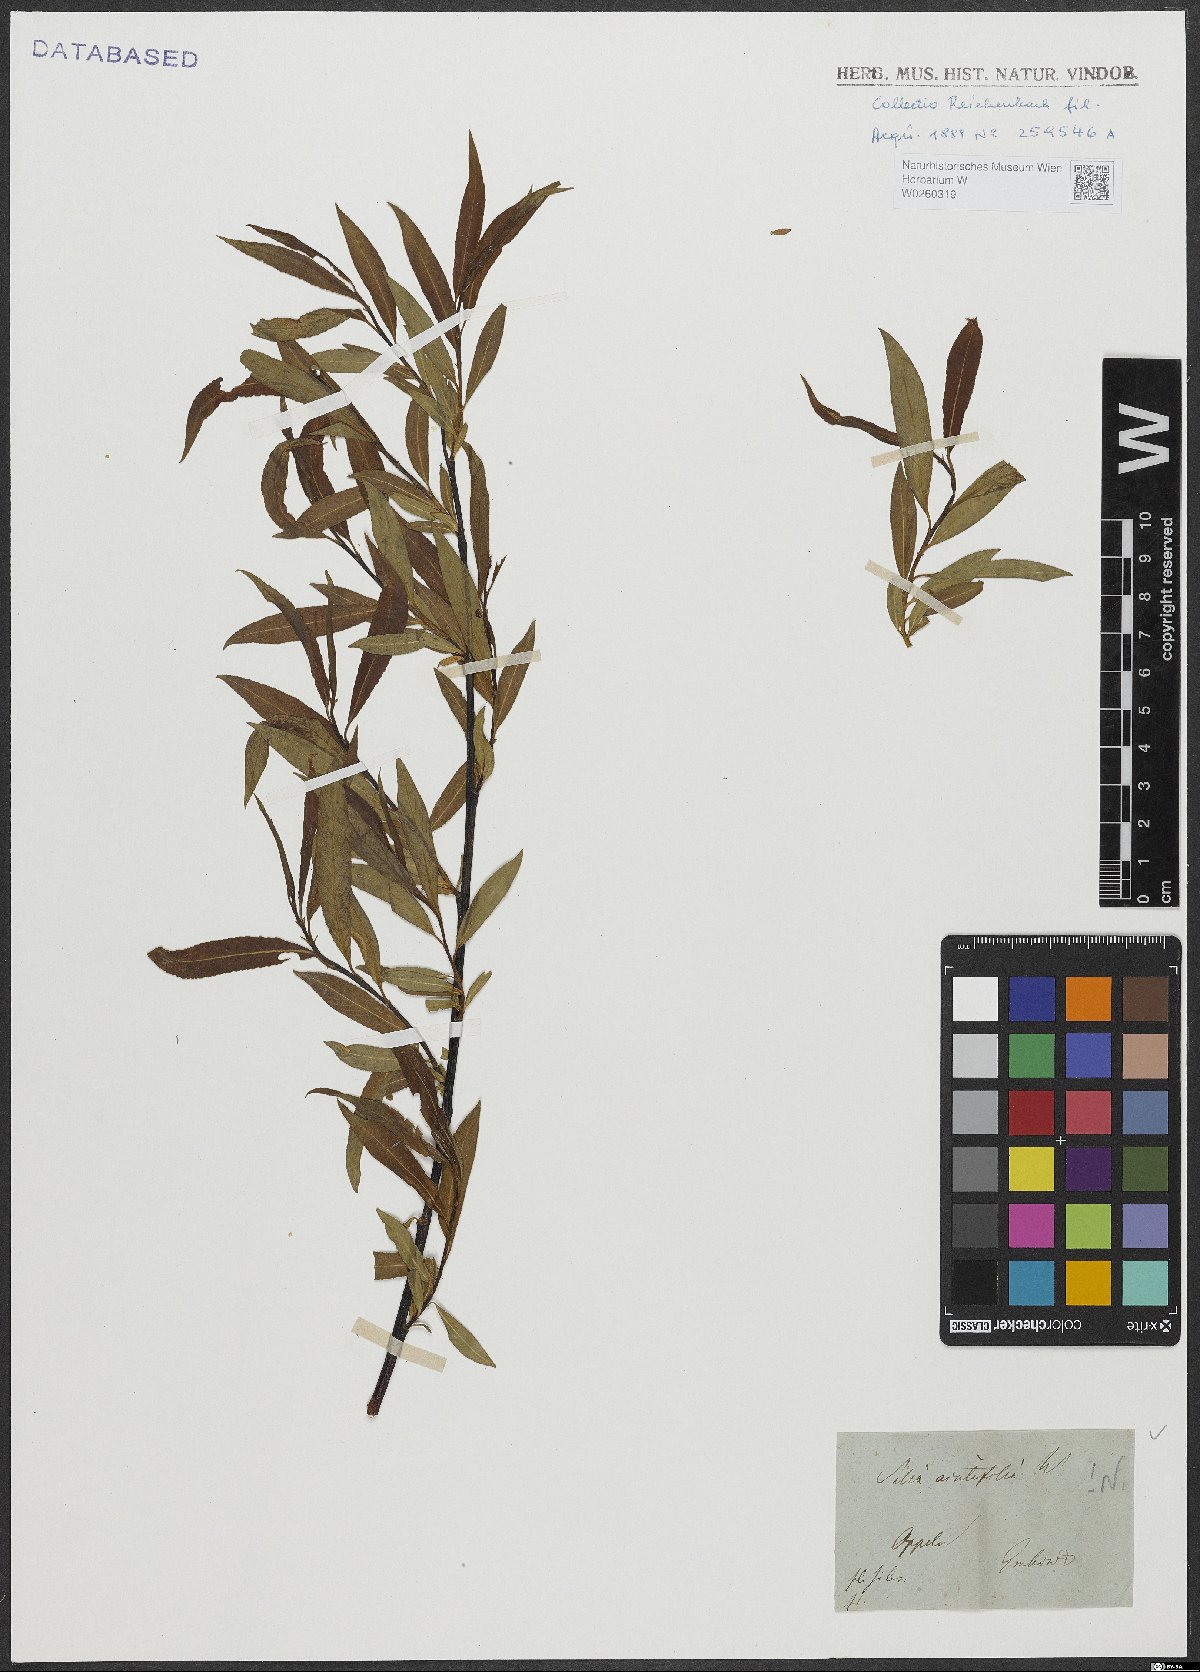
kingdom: Plantae
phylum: Tracheophyta
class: Magnoliopsida
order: Malpighiales
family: Salicaceae
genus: Salix
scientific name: Salix acutifolia
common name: Siberian violet-willow
